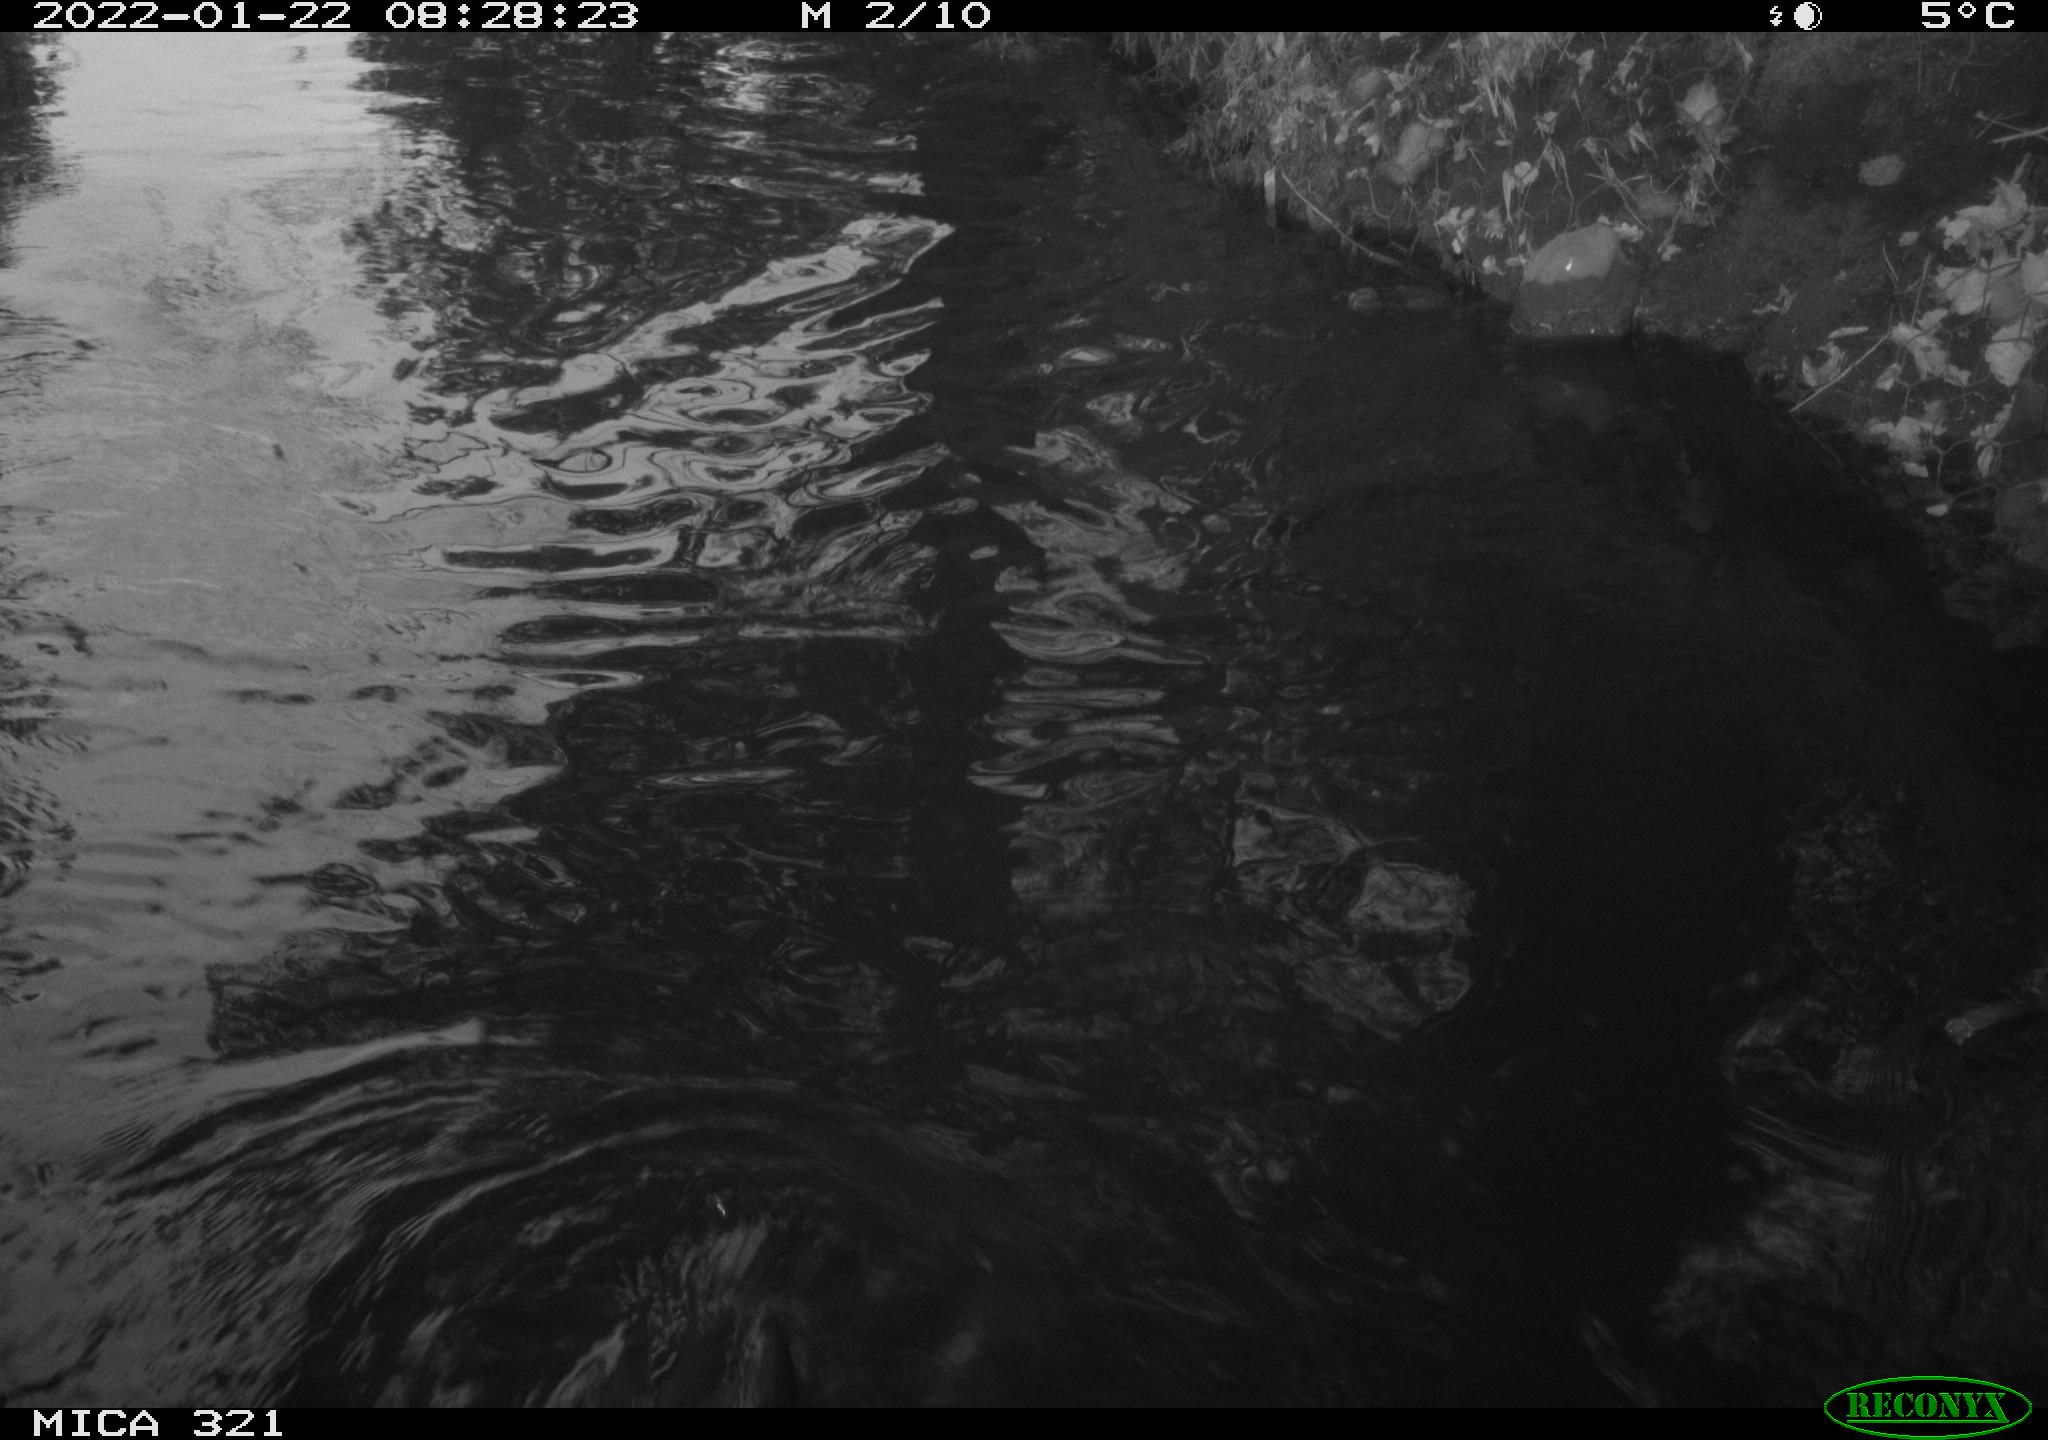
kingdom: Animalia
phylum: Chordata
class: Aves
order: Suliformes
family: Phalacrocoracidae
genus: Phalacrocorax
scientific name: Phalacrocorax carbo
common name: Great cormorant
